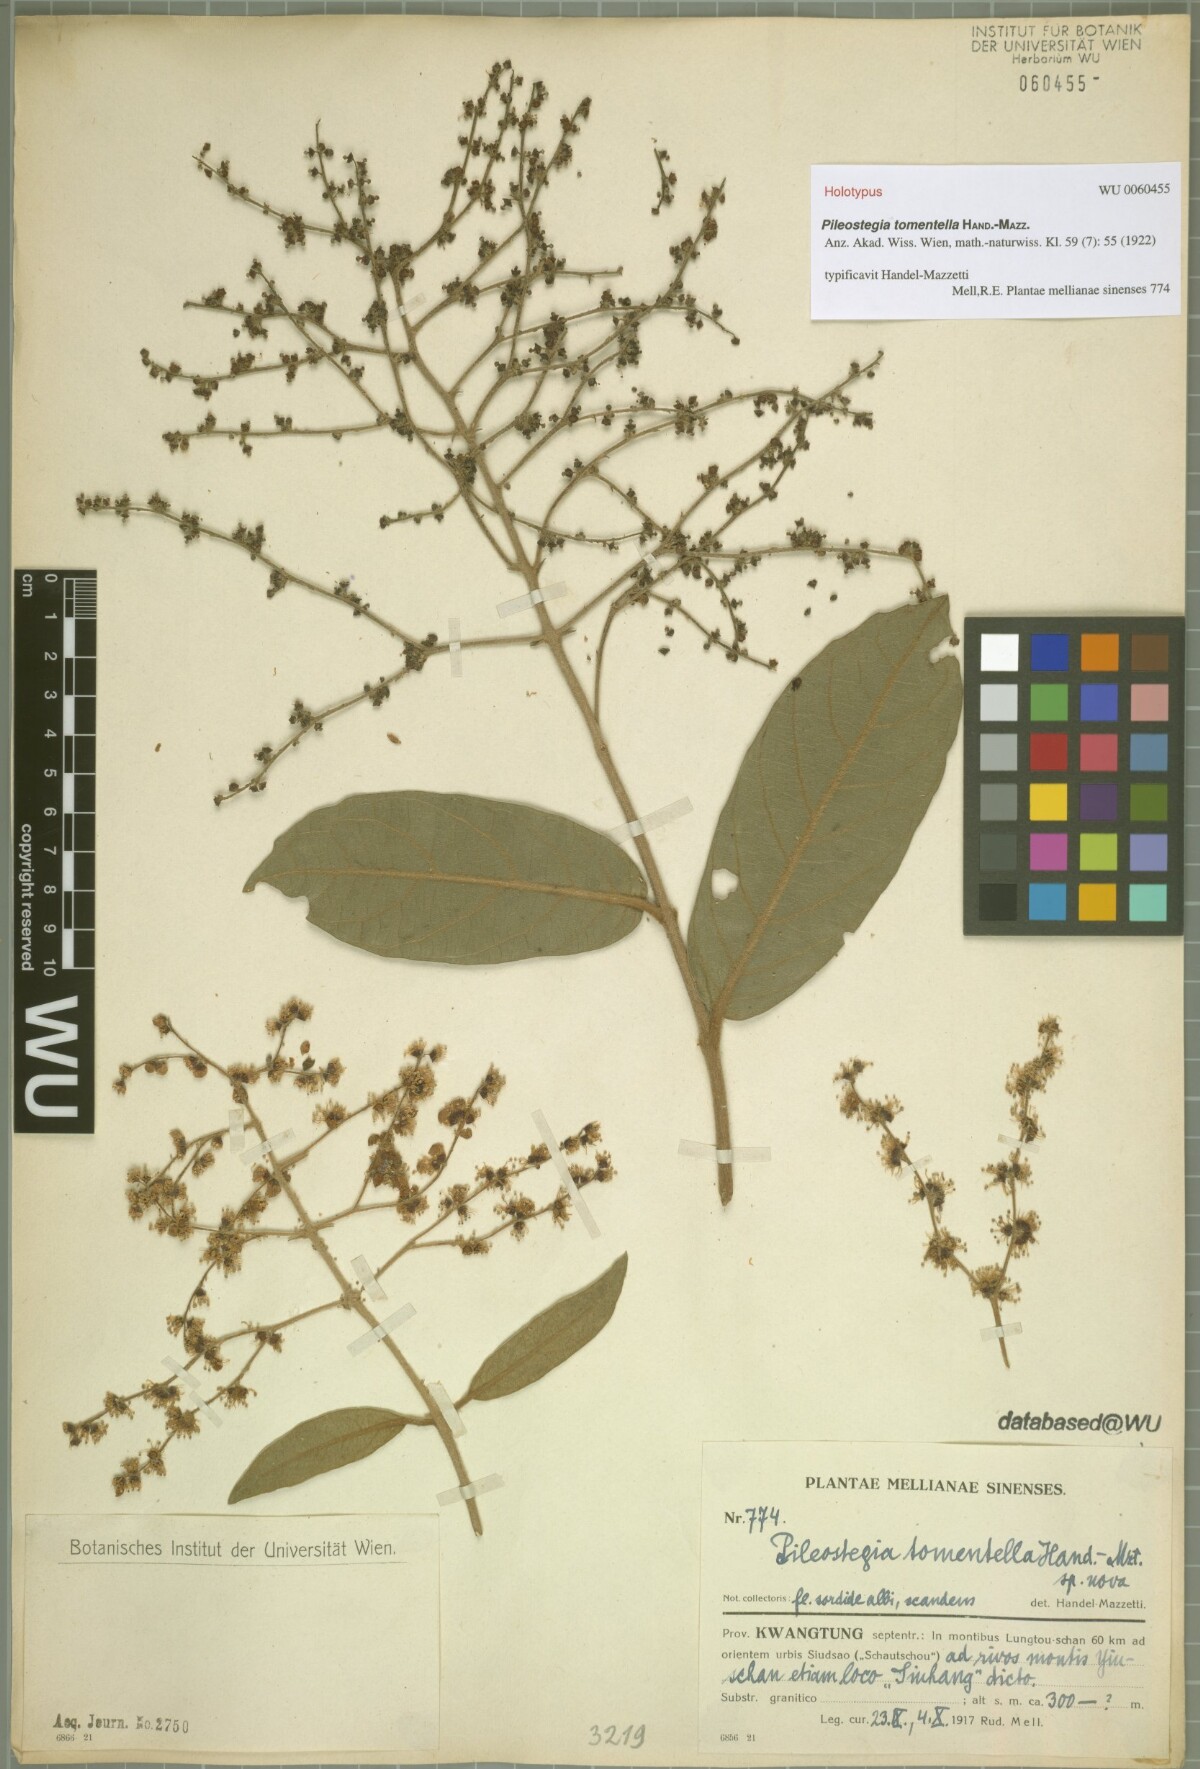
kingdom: Plantae
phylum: Tracheophyta
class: Magnoliopsida
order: Cornales
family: Hydrangeaceae
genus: Hydrangea
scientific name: Hydrangea tomentella
